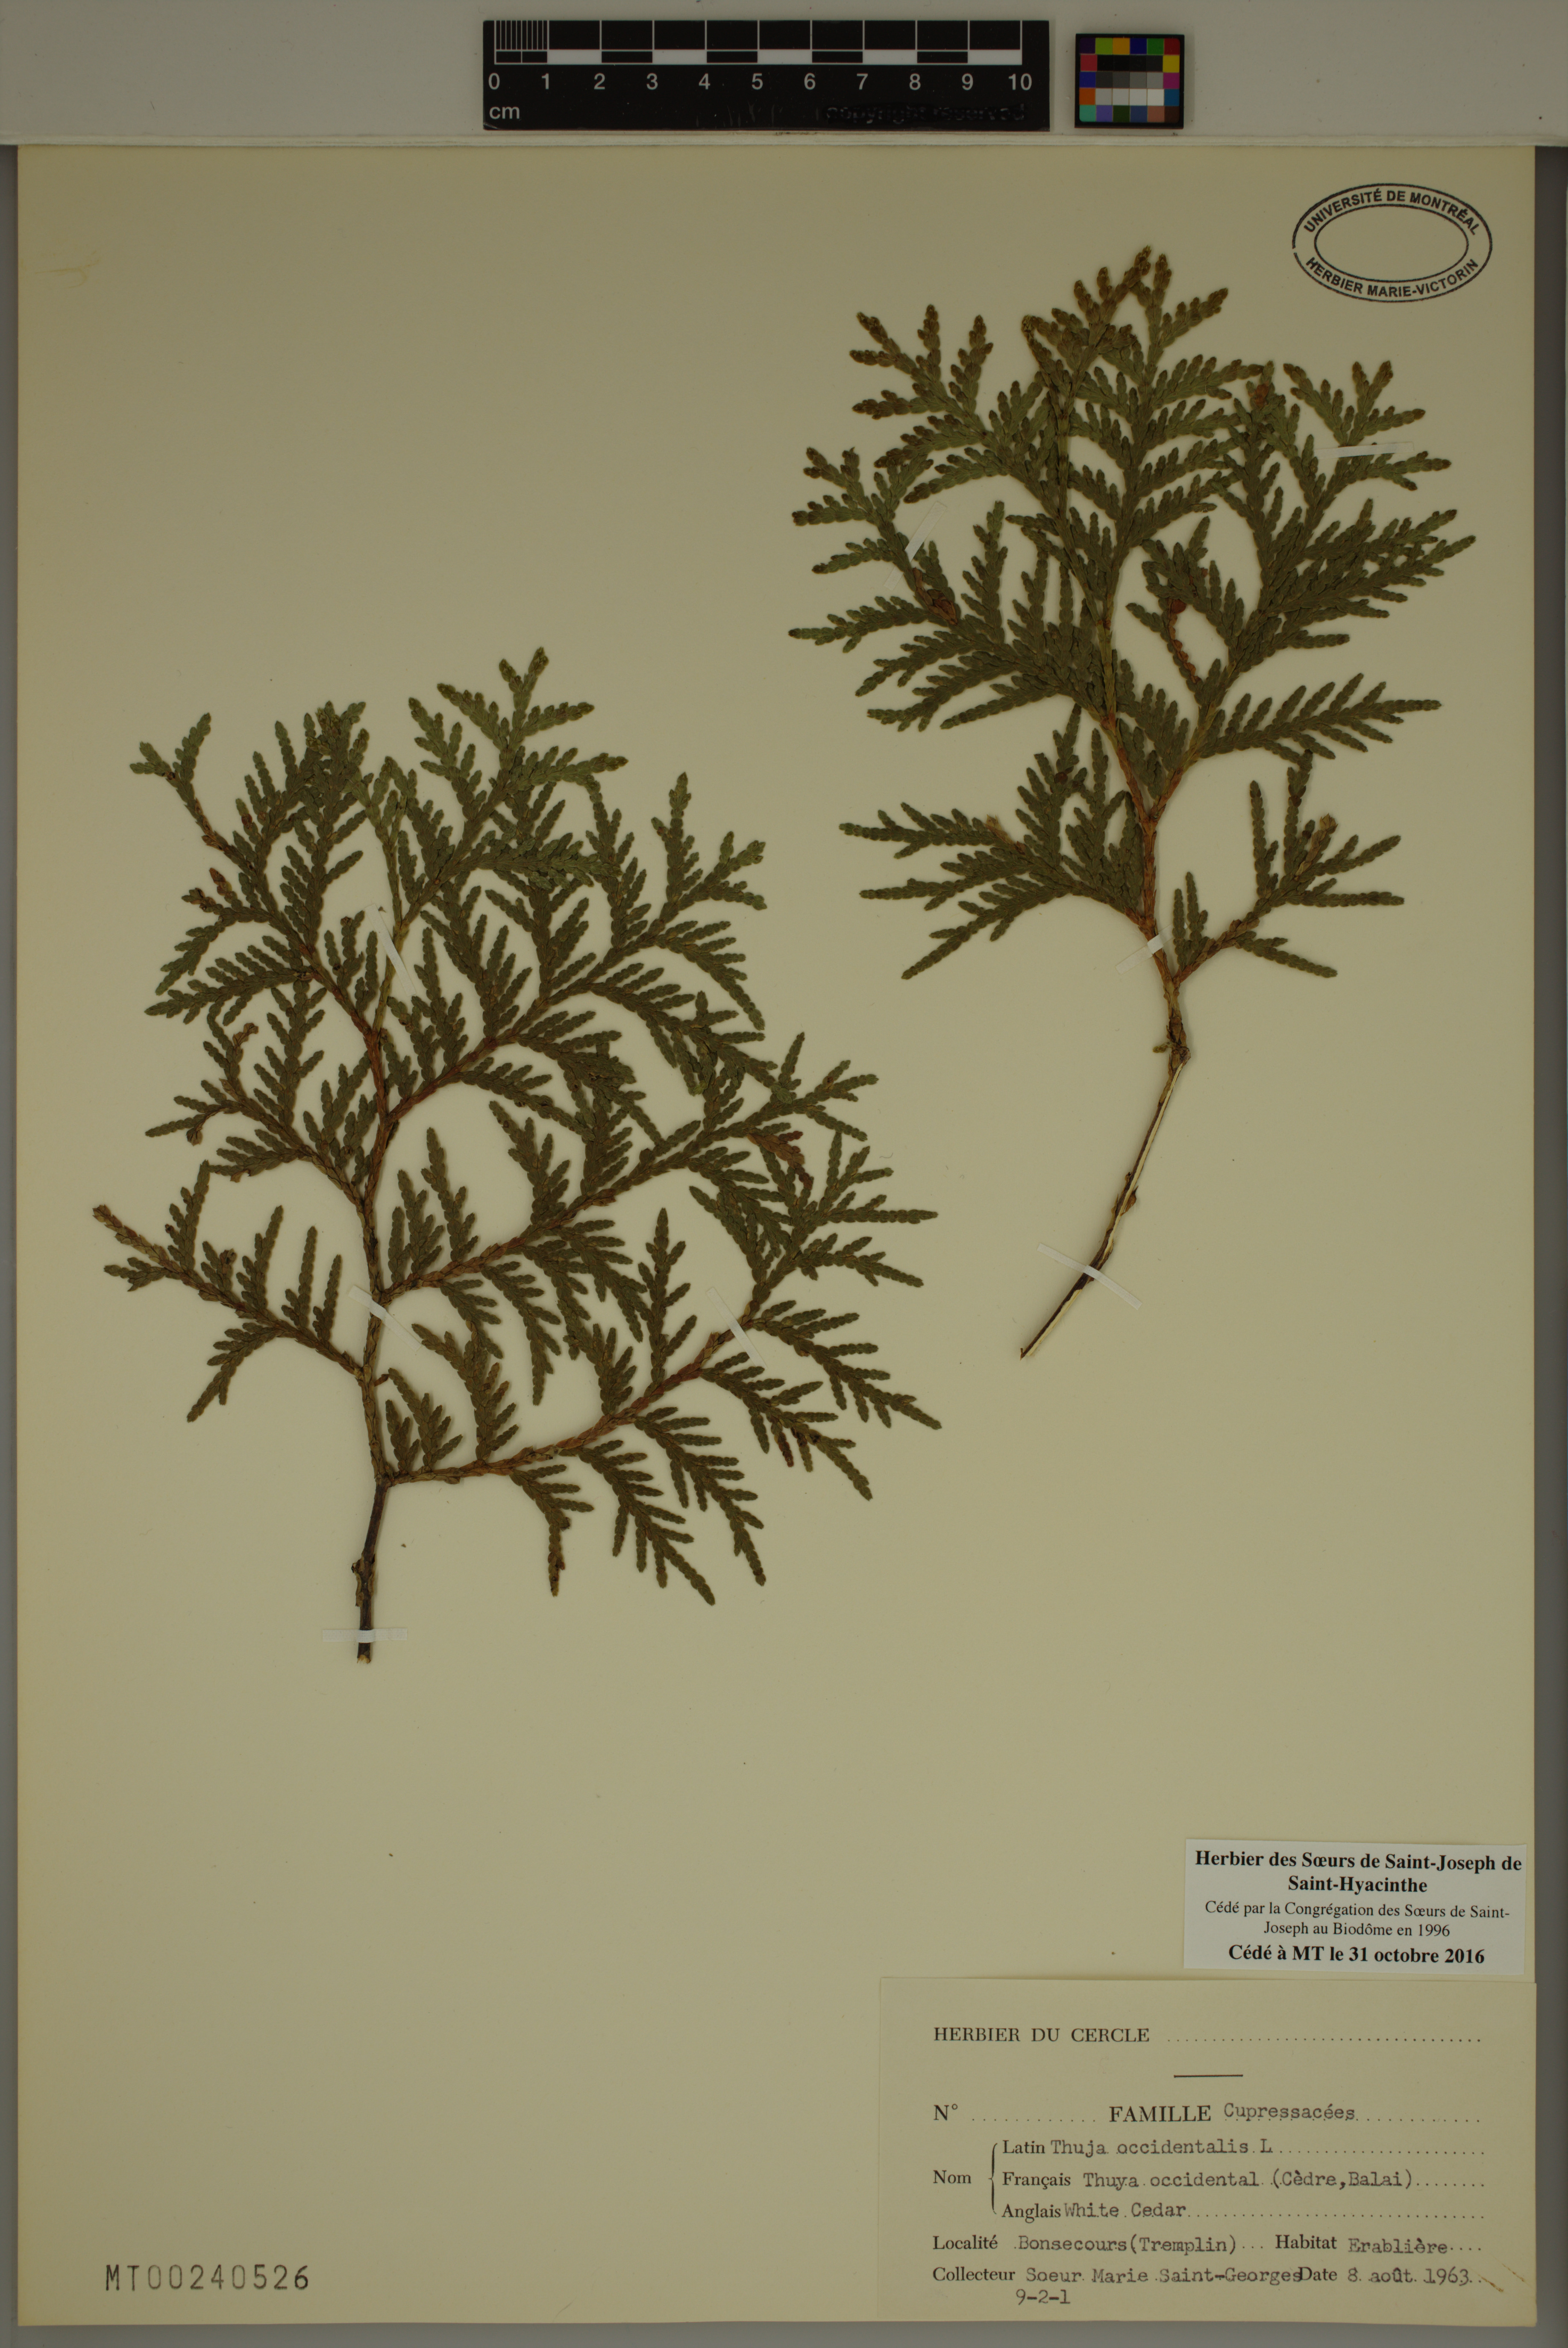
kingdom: Plantae
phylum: Tracheophyta
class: Pinopsida
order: Pinales
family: Cupressaceae
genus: Thuja
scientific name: Thuja occidentalis
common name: Northern white-cedar
